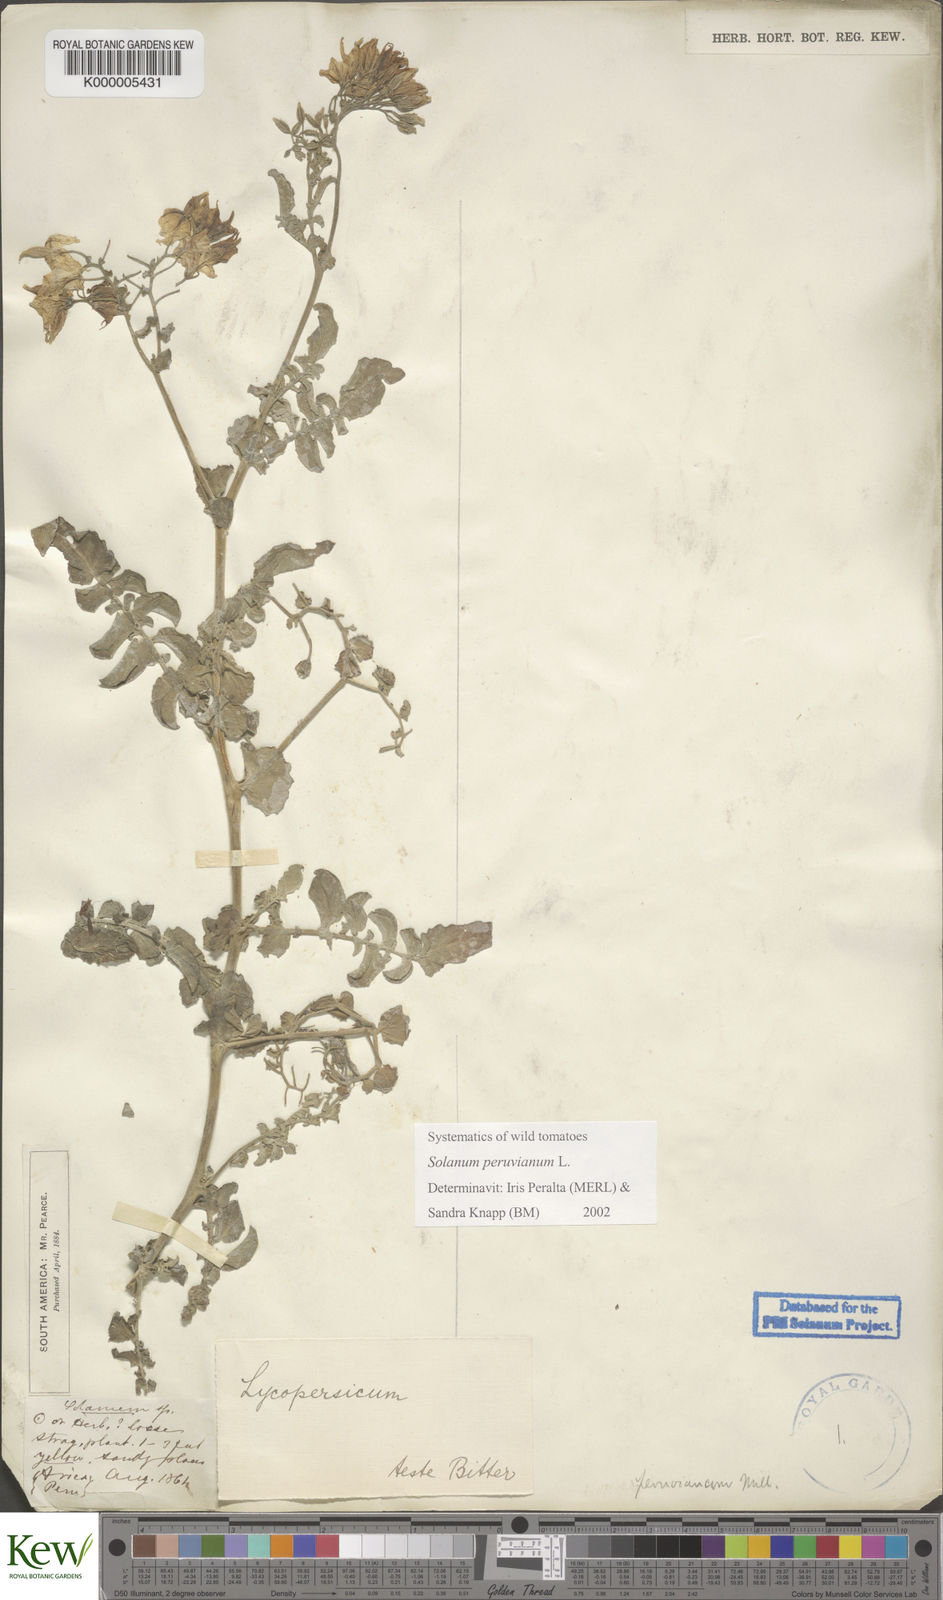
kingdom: Plantae
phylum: Tracheophyta
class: Magnoliopsida
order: Solanales
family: Solanaceae
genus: Solanum
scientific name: Solanum peruvianum
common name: Peruvian nightshade
